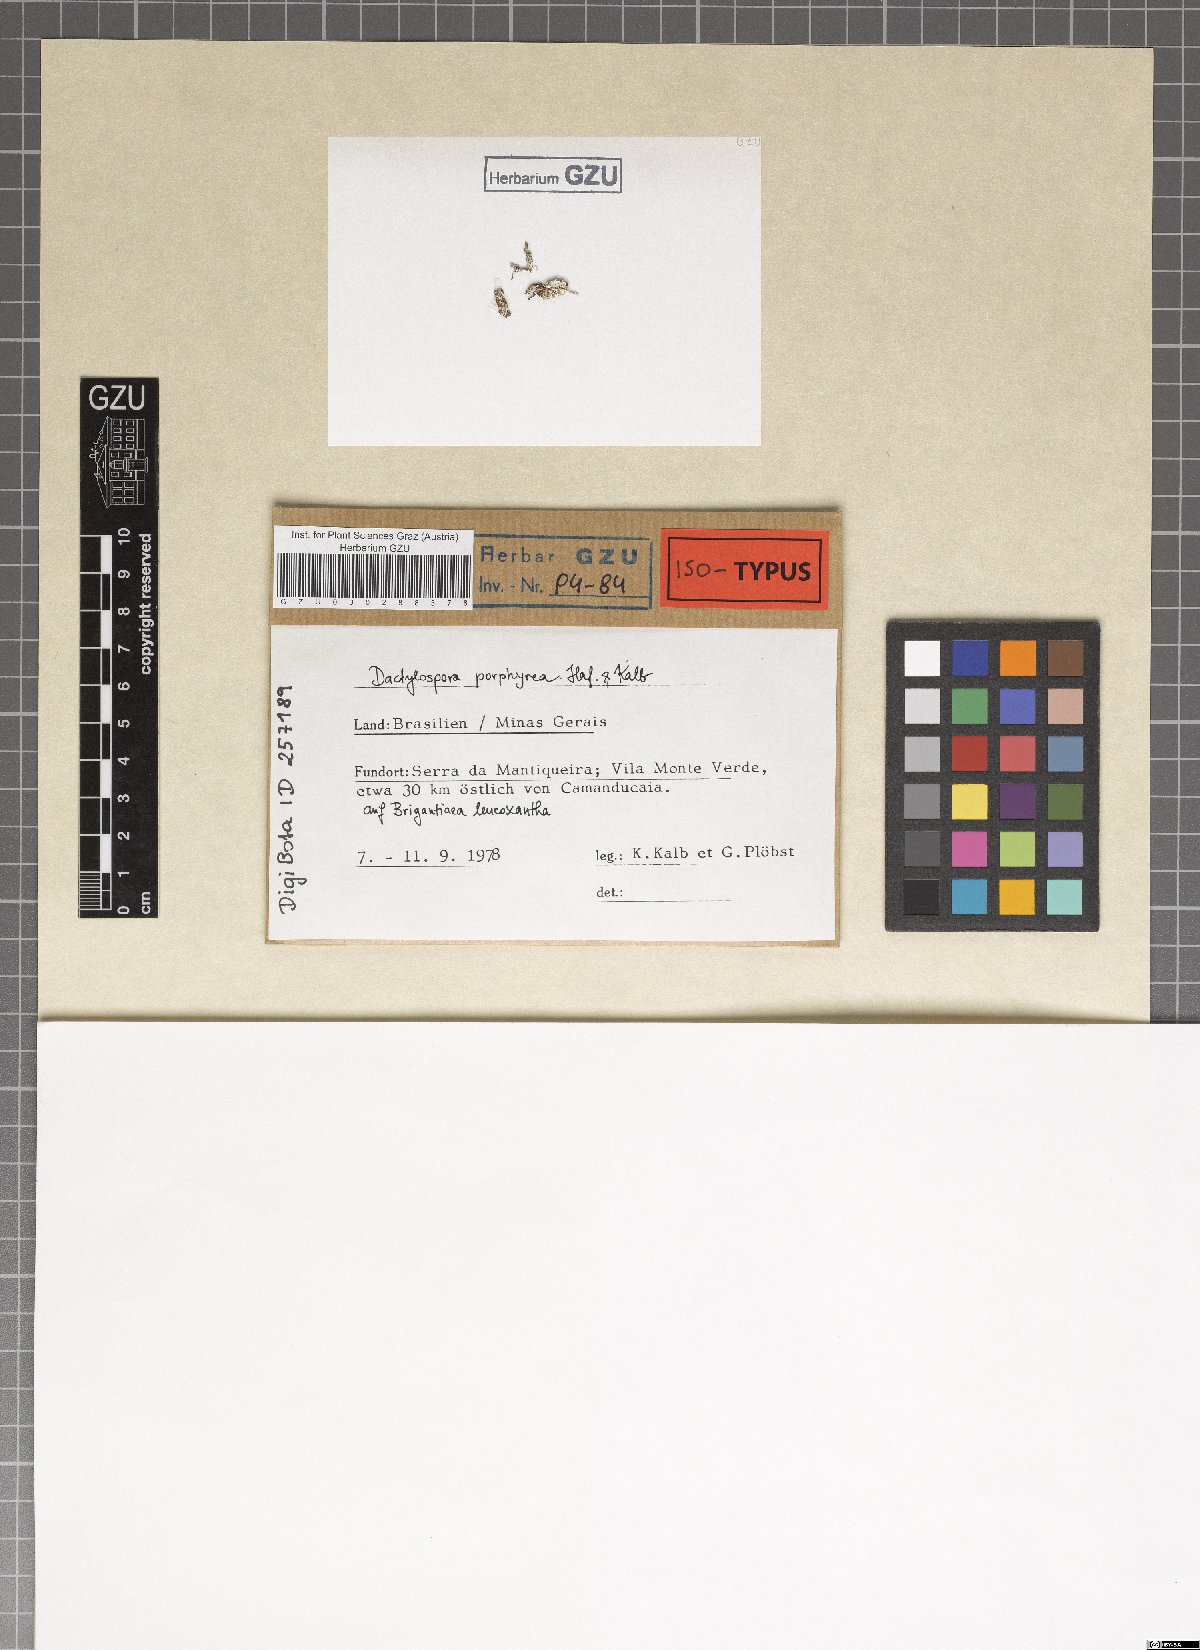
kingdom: Fungi
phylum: Ascomycota
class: Eurotiomycetes
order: Sclerococcales
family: Sclerococcaceae
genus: Sclerococcum
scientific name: Sclerococcum porphyreum
